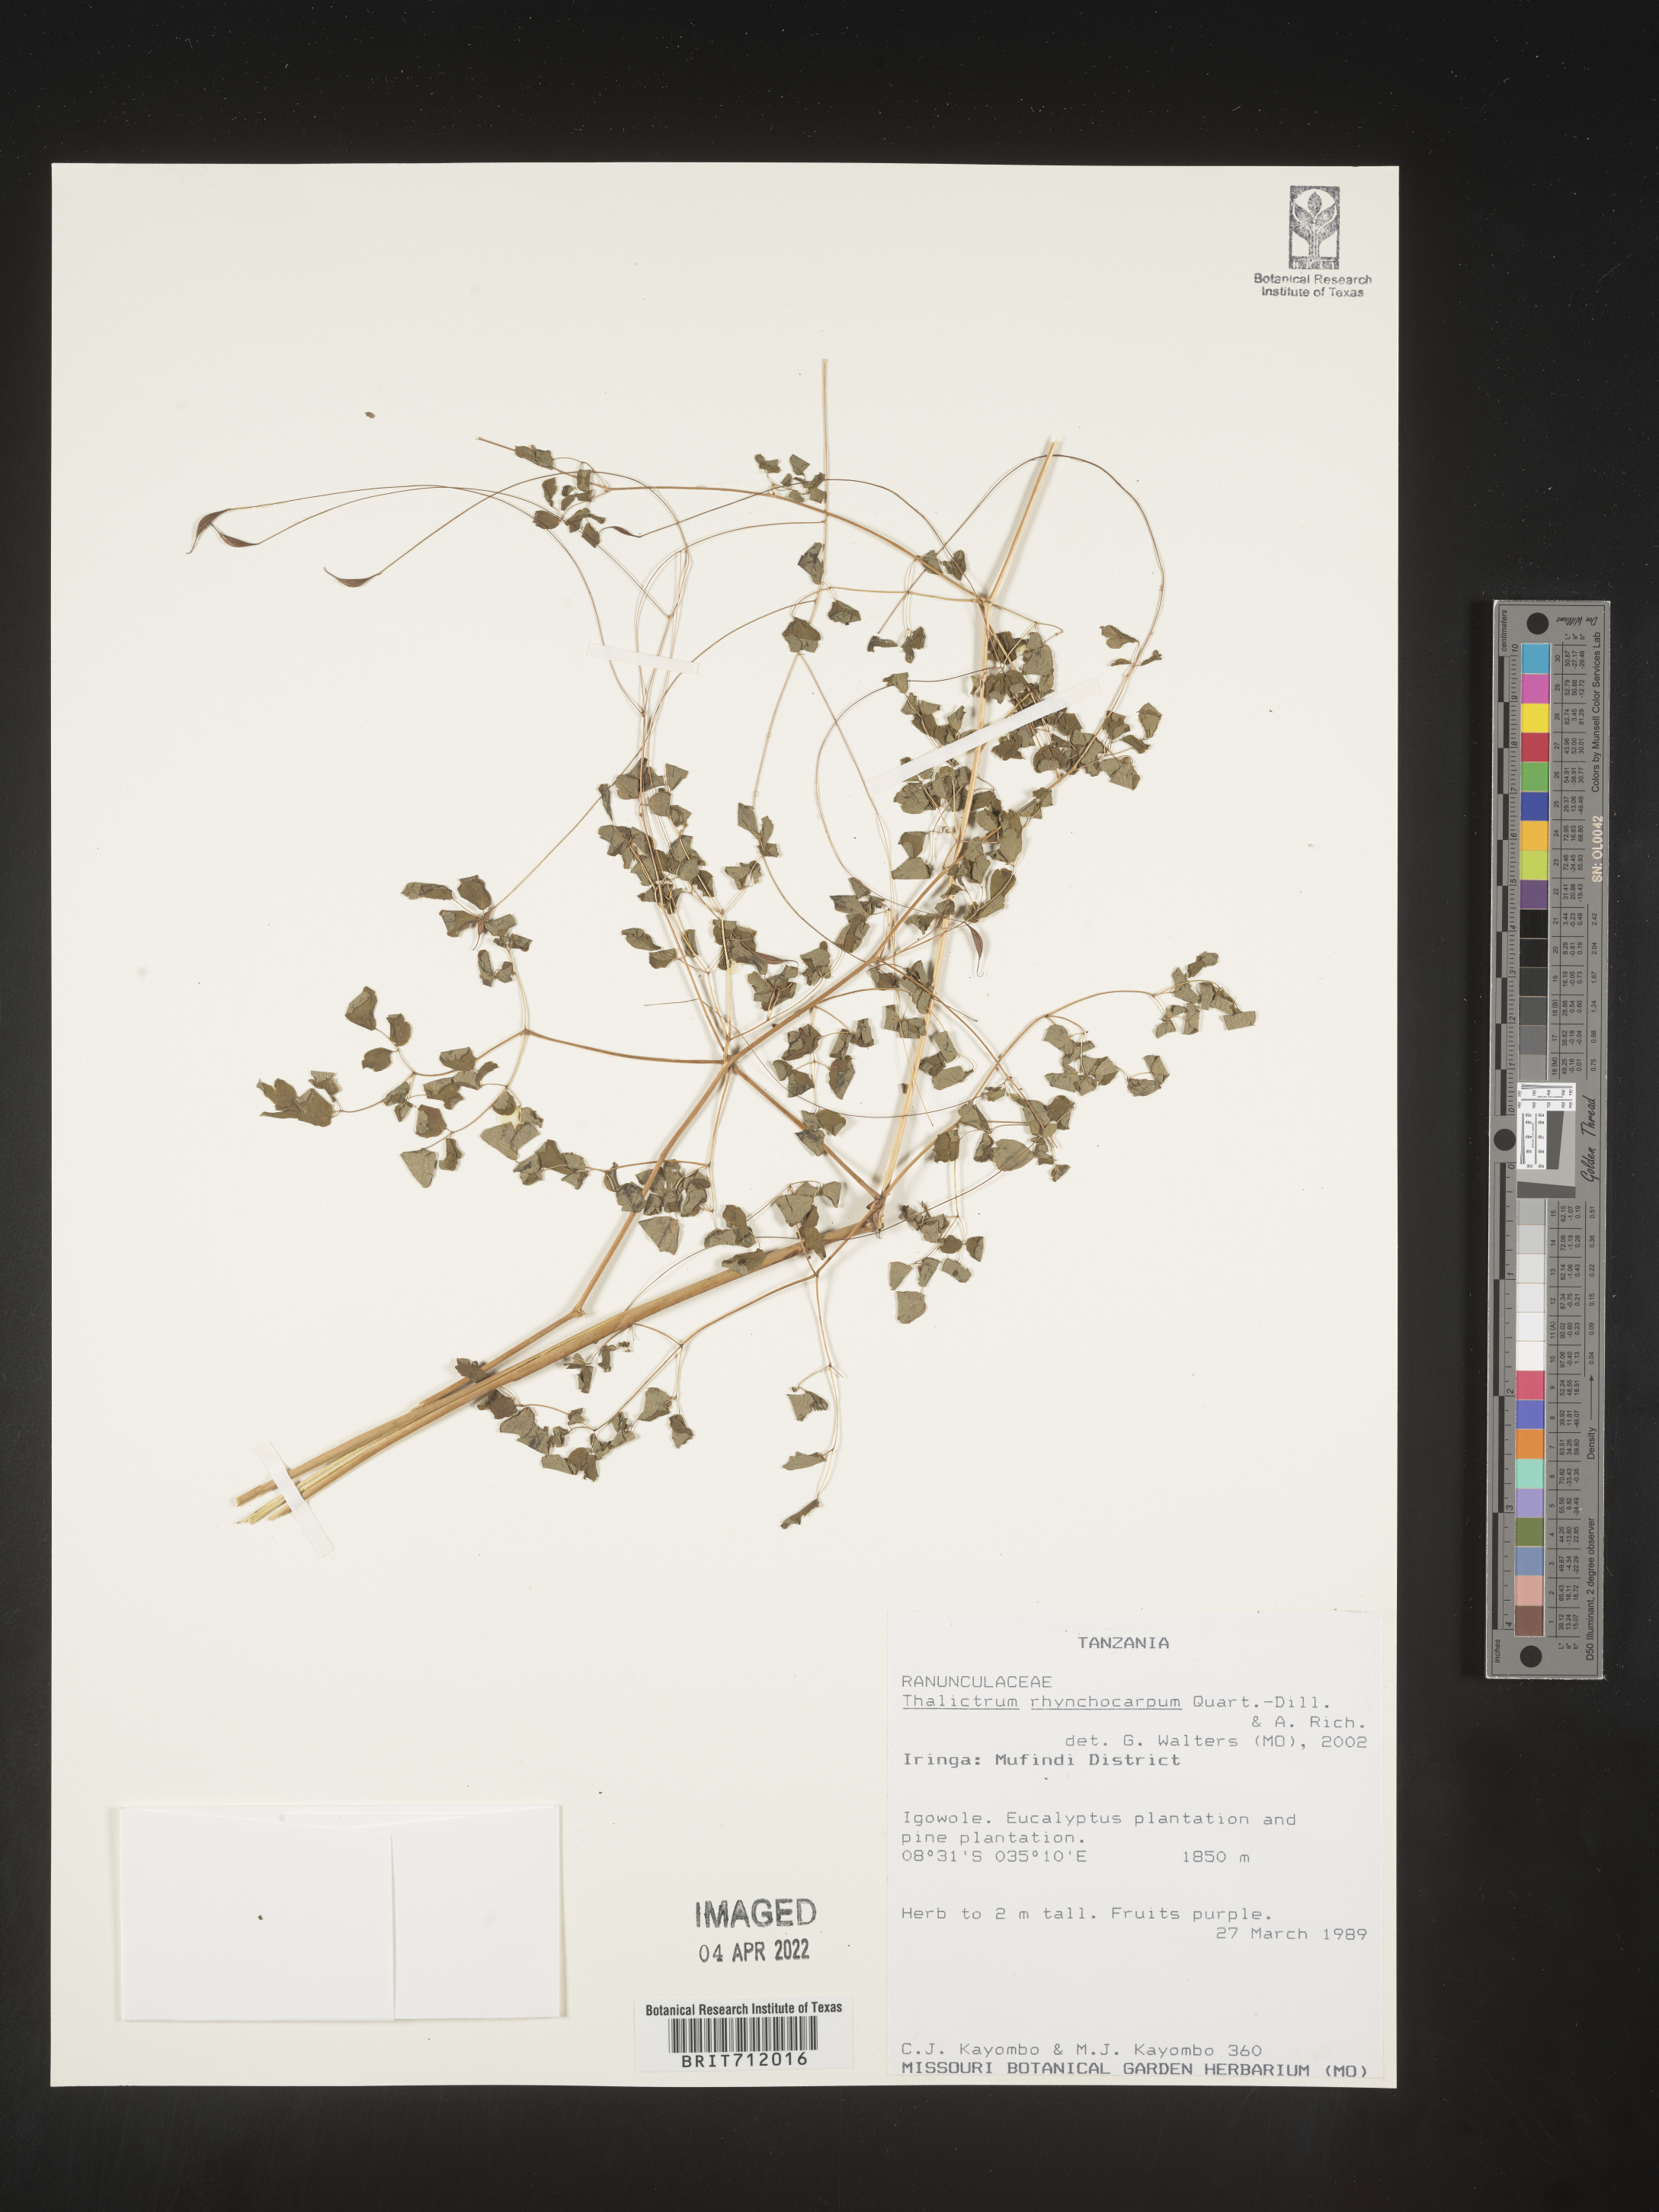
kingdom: Plantae
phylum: Tracheophyta
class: Magnoliopsida
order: Ranunculales
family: Ranunculaceae
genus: Thalictrum
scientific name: Thalictrum
